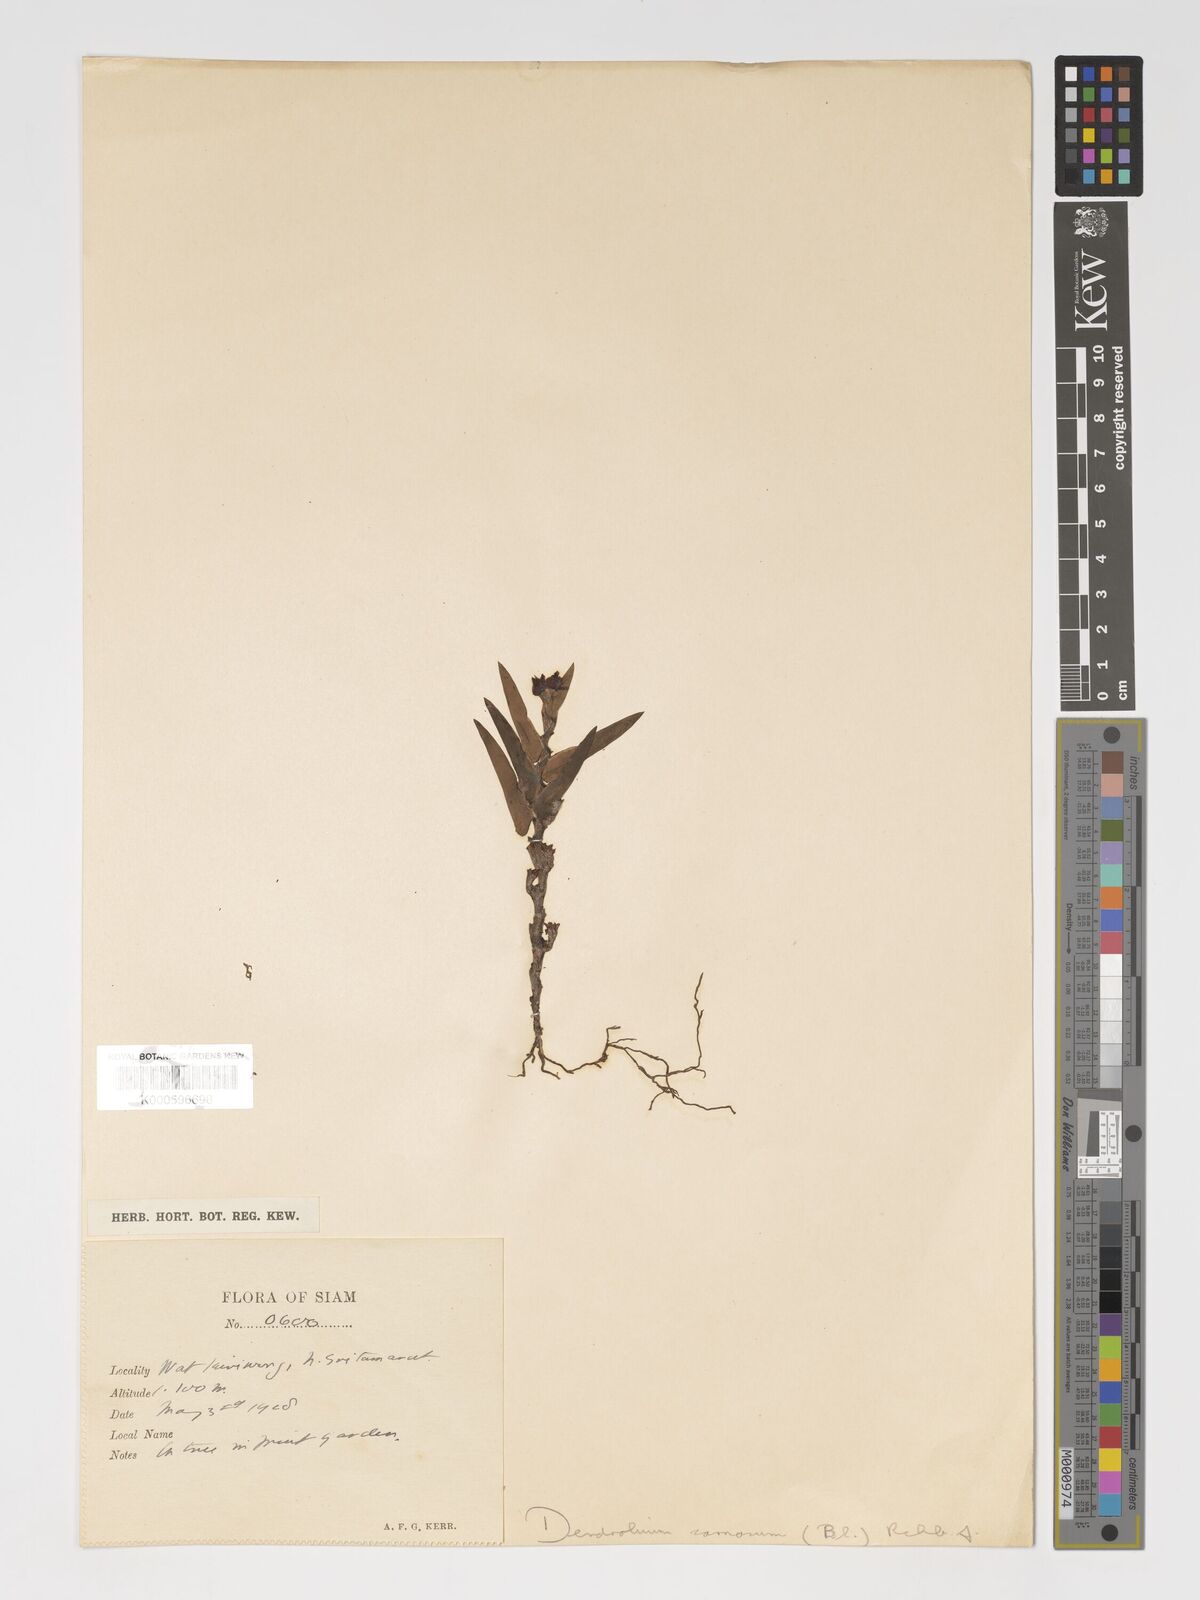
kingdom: Plantae
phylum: Tracheophyta
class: Liliopsida
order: Asparagales
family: Orchidaceae
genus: Oxystophyllum
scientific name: Oxystophyllum carnosum
